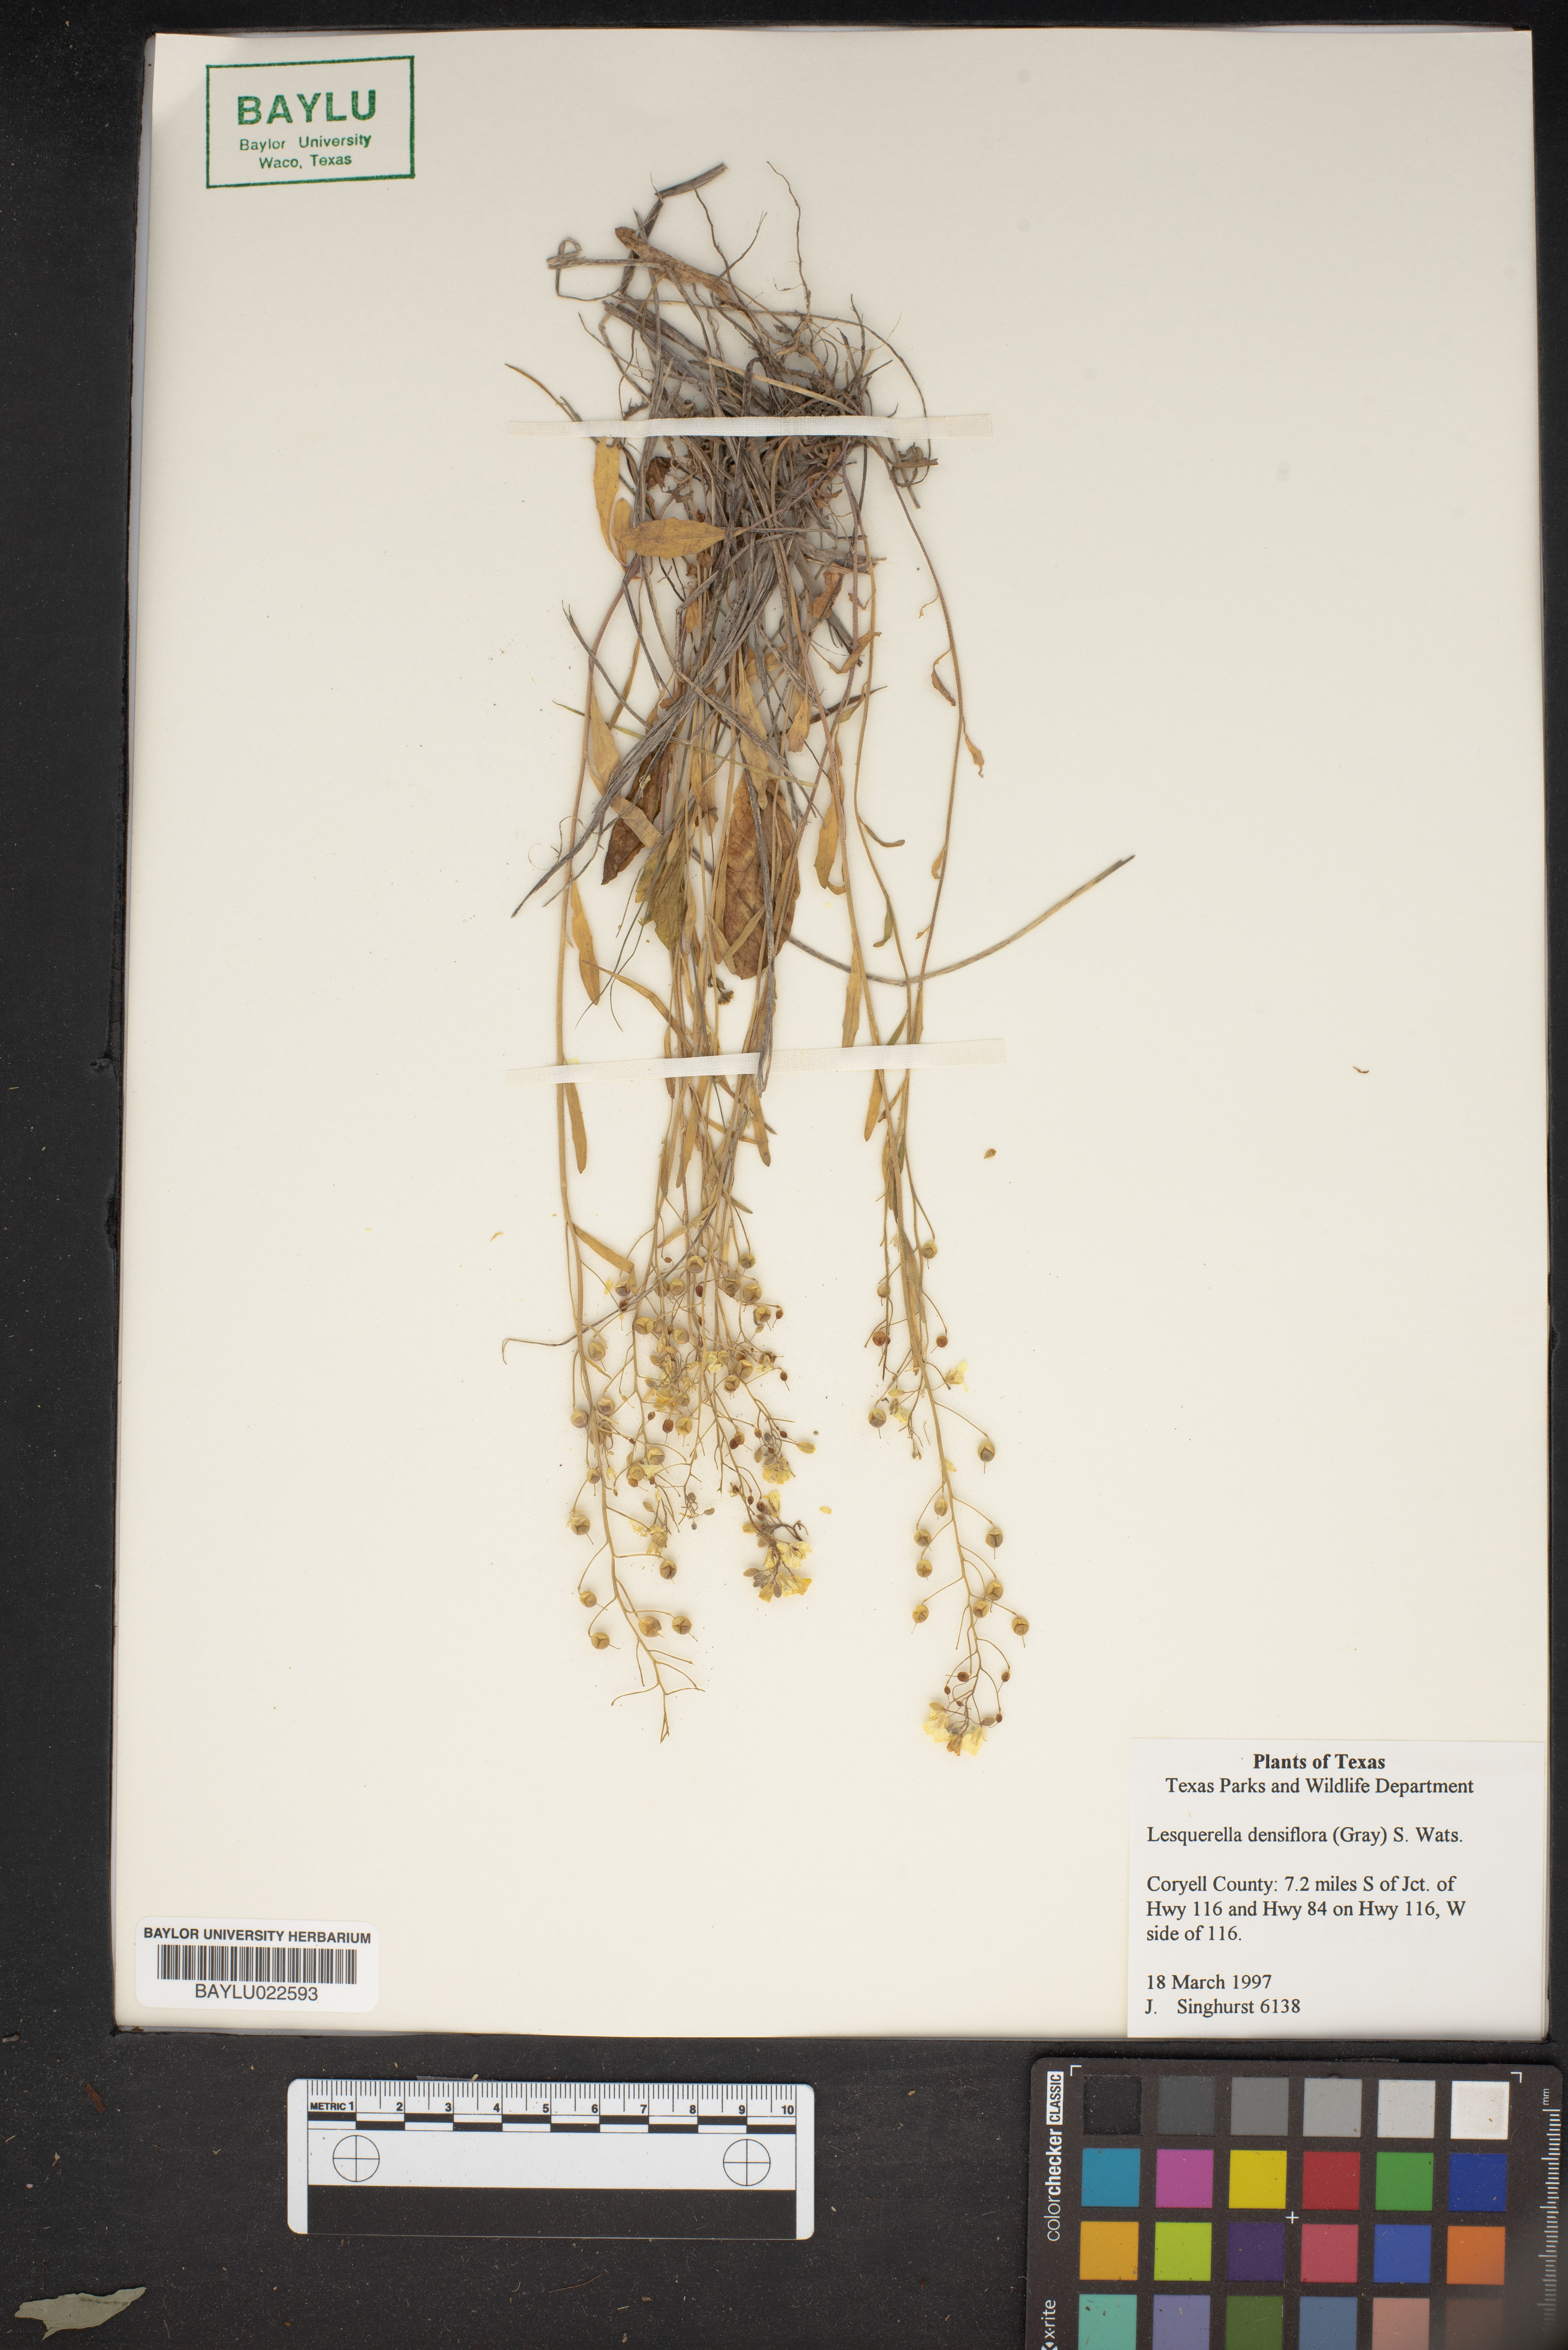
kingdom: Plantae
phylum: Tracheophyta
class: Magnoliopsida
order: Brassicales
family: Brassicaceae
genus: Physaria
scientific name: Physaria densiflora
